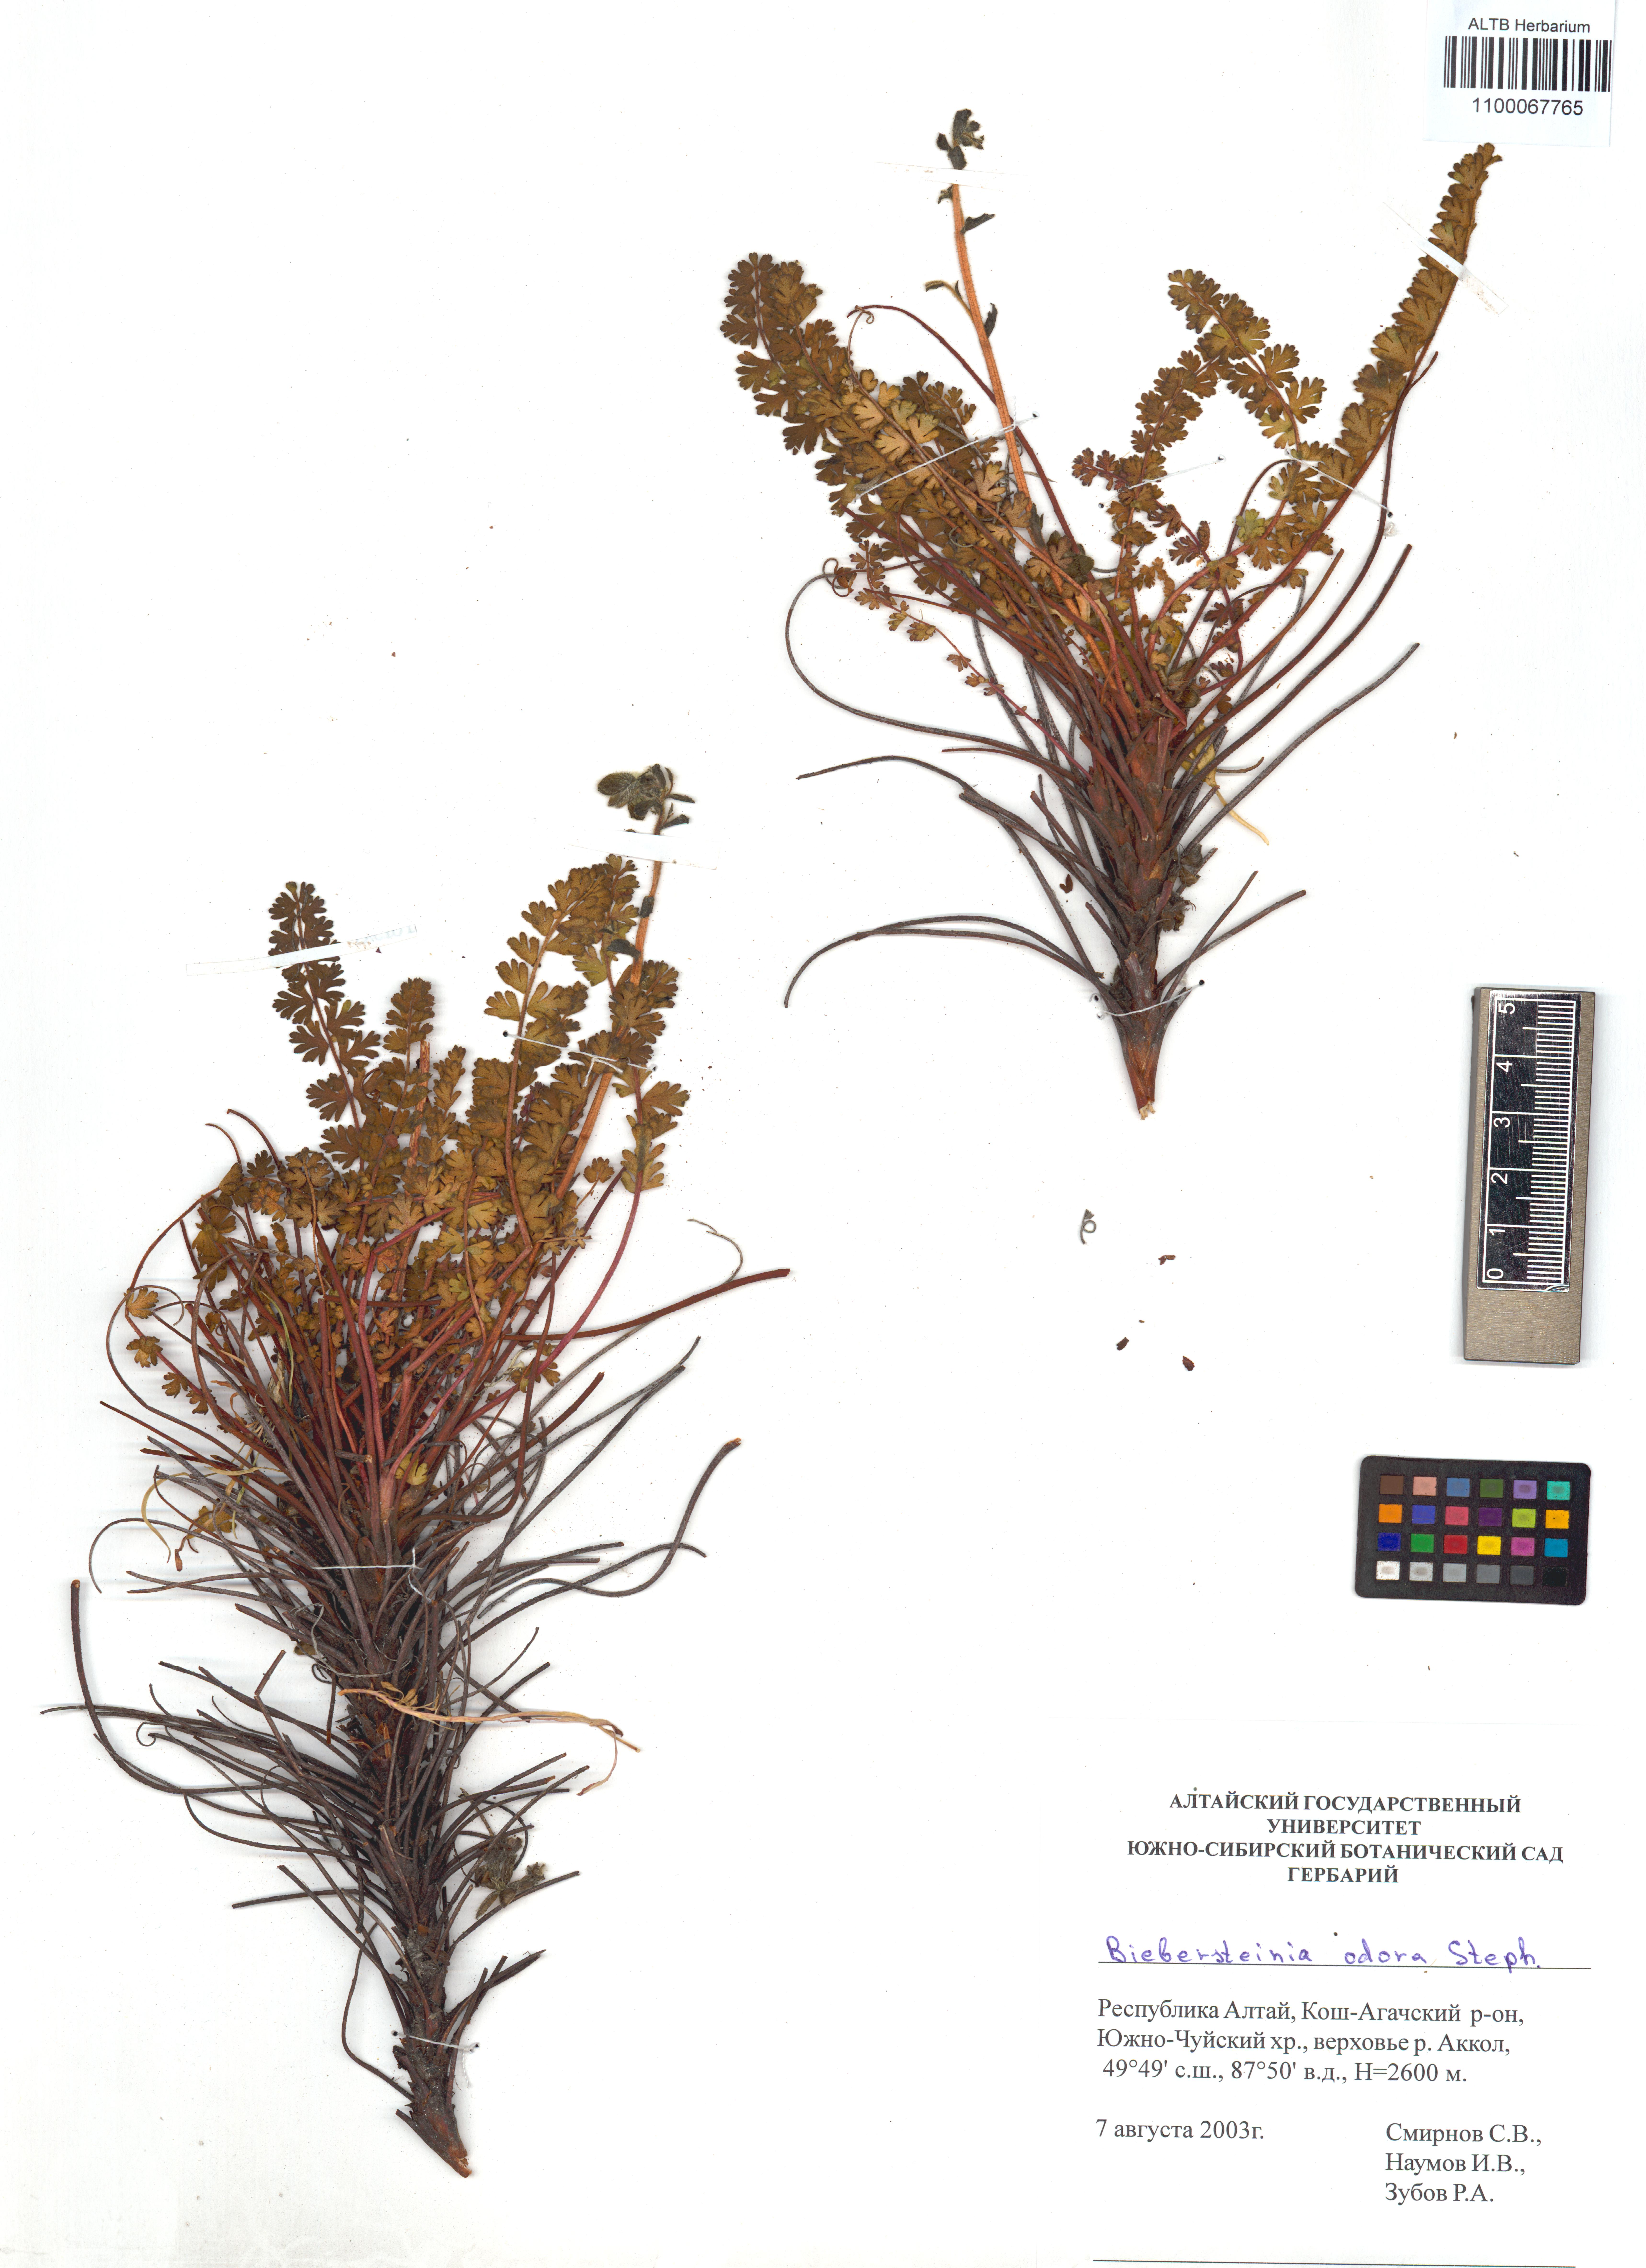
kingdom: Plantae
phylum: Tracheophyta
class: Magnoliopsida
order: Sapindales
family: Biebersteiniaceae
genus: Biebersteinia
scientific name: Biebersteinia odora
